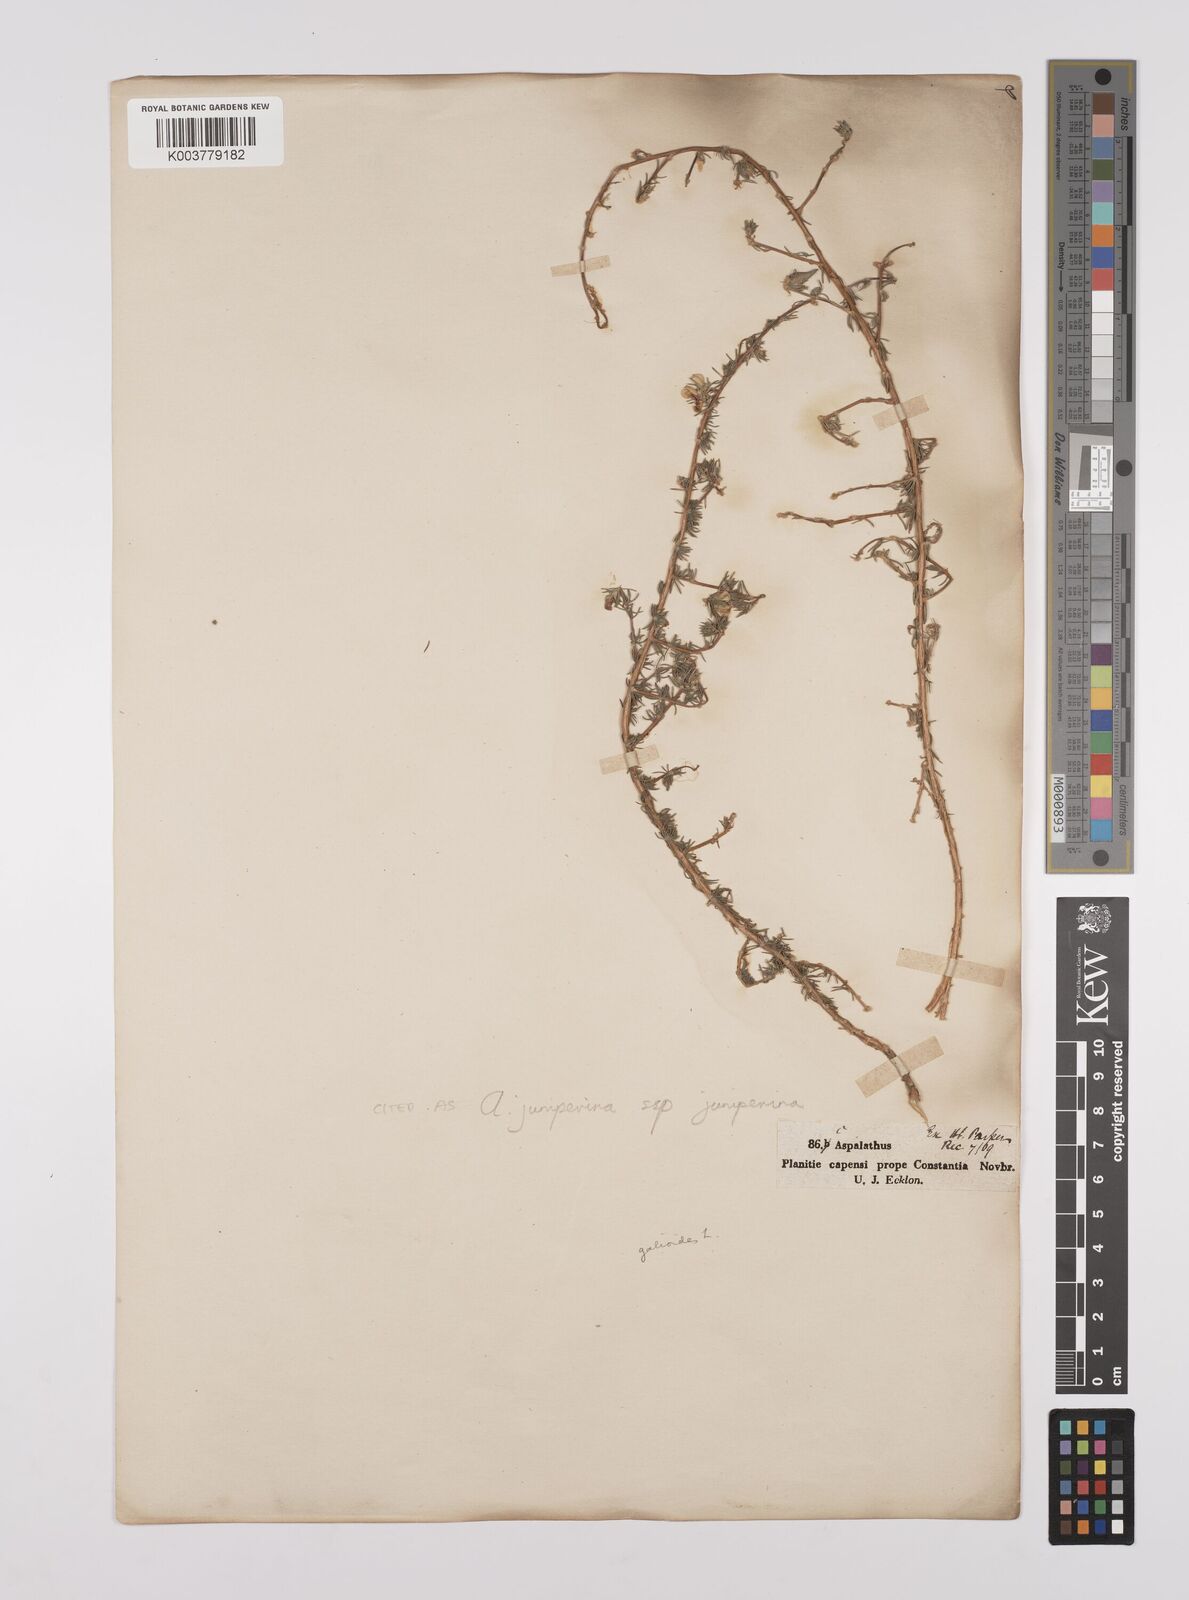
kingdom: Plantae
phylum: Tracheophyta
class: Magnoliopsida
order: Fabales
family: Fabaceae
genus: Aspalathus
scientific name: Aspalathus juniperina
